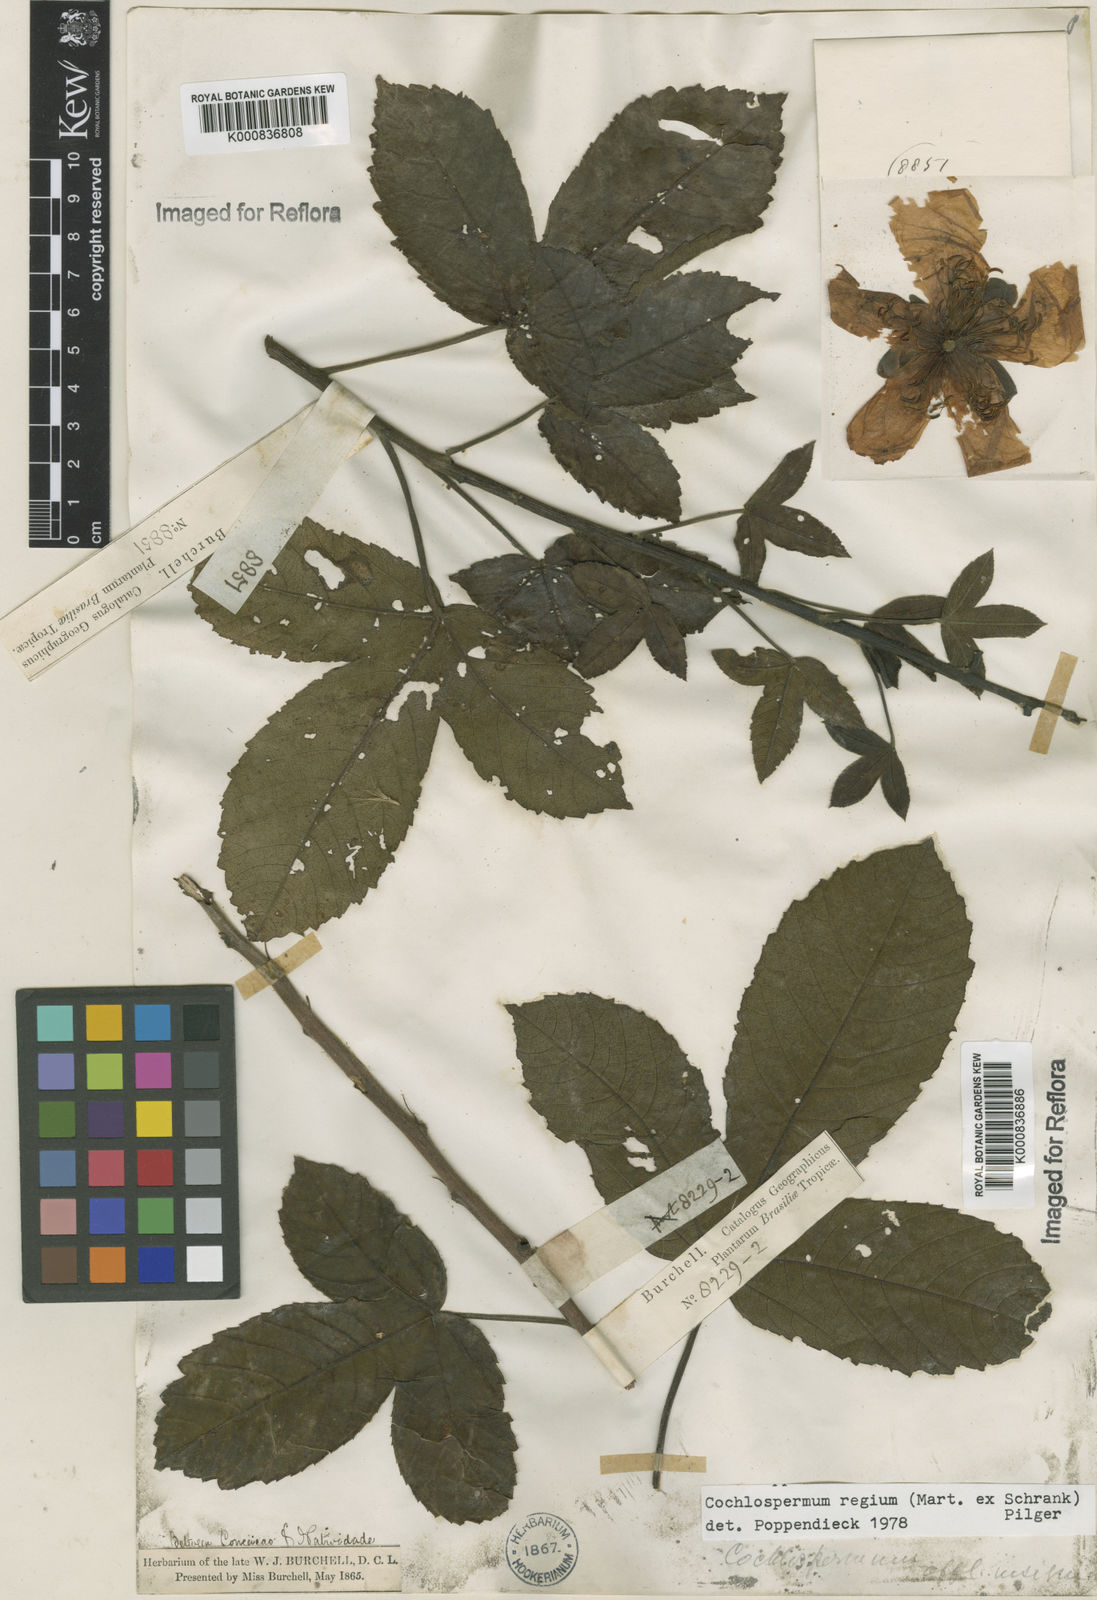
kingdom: Plantae
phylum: Tracheophyta
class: Magnoliopsida
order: Malvales
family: Cochlospermaceae
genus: Cochlospermum
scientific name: Cochlospermum regium
